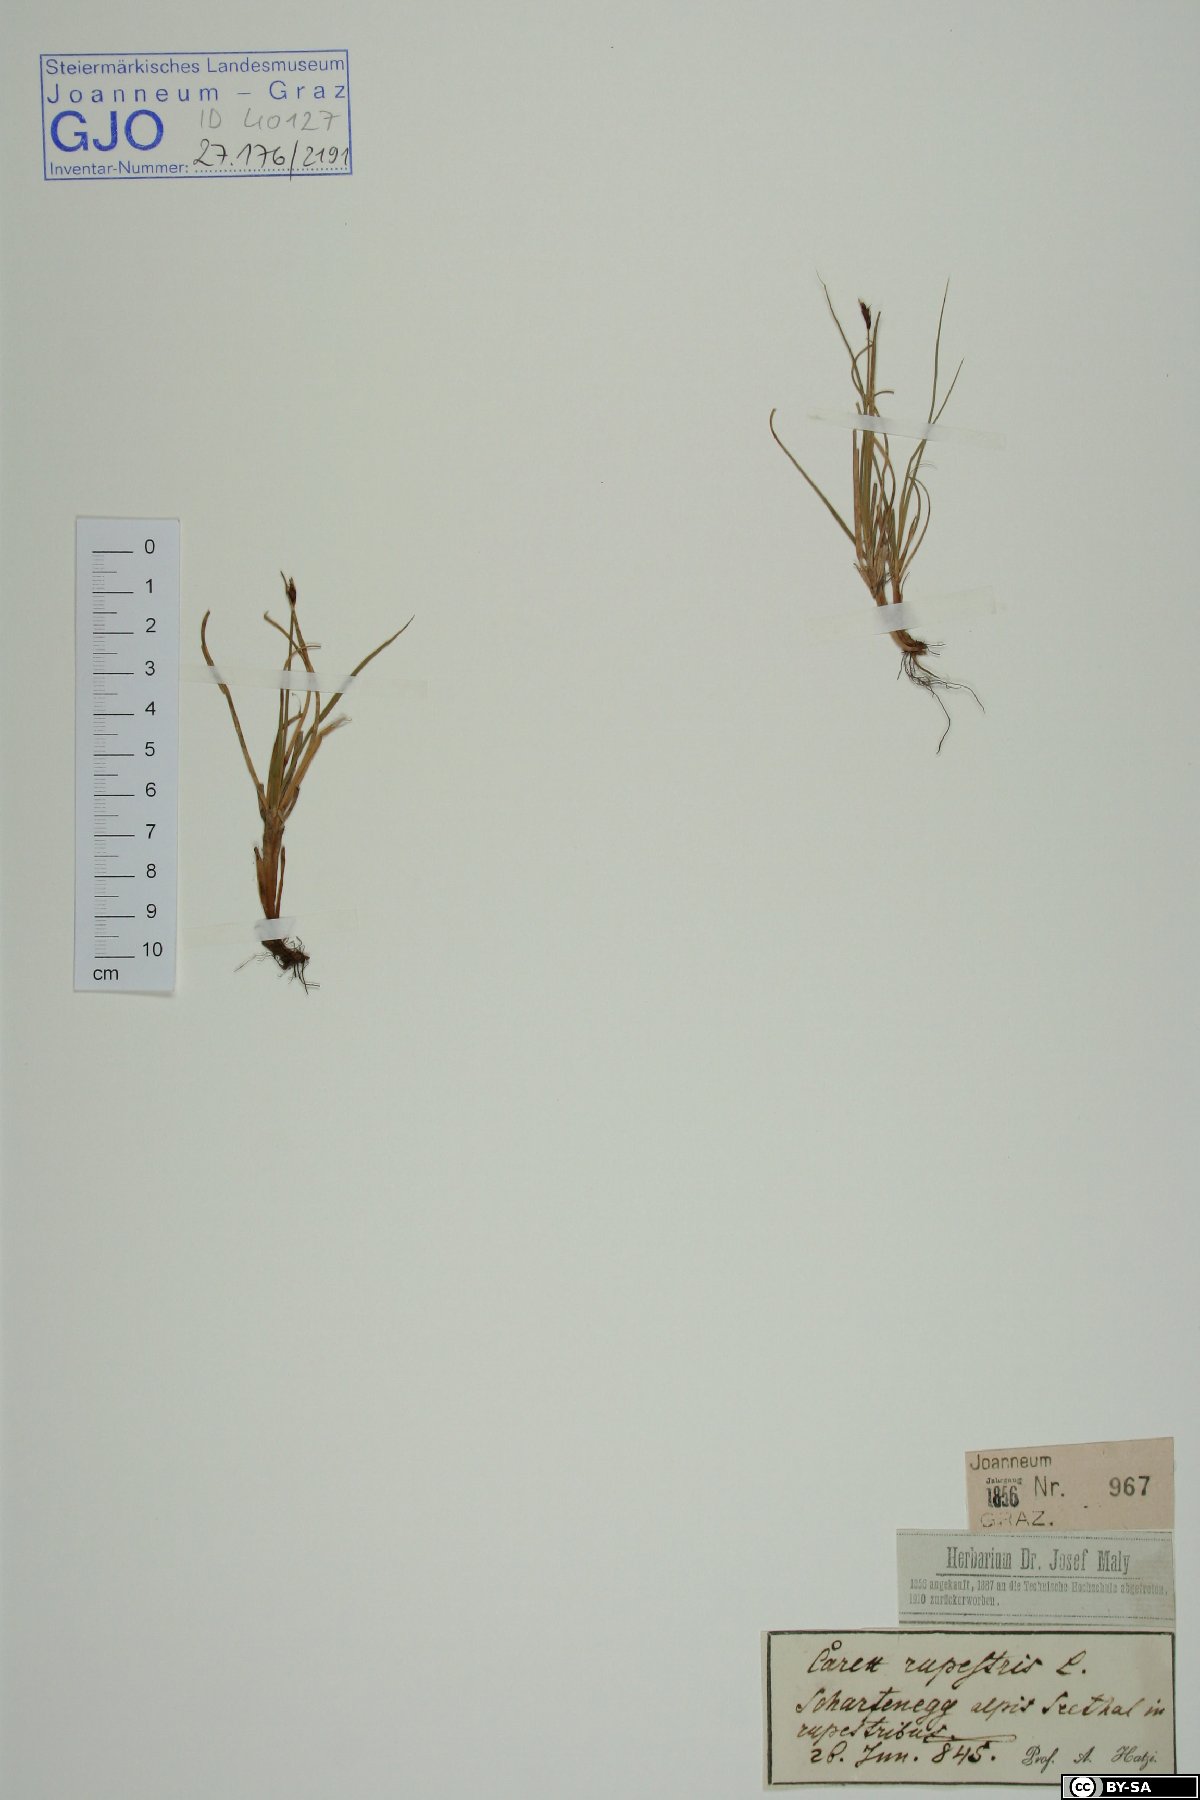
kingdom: Plantae
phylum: Tracheophyta
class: Liliopsida
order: Poales
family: Cyperaceae
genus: Carex
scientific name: Carex rupestris
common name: Rock sedge
